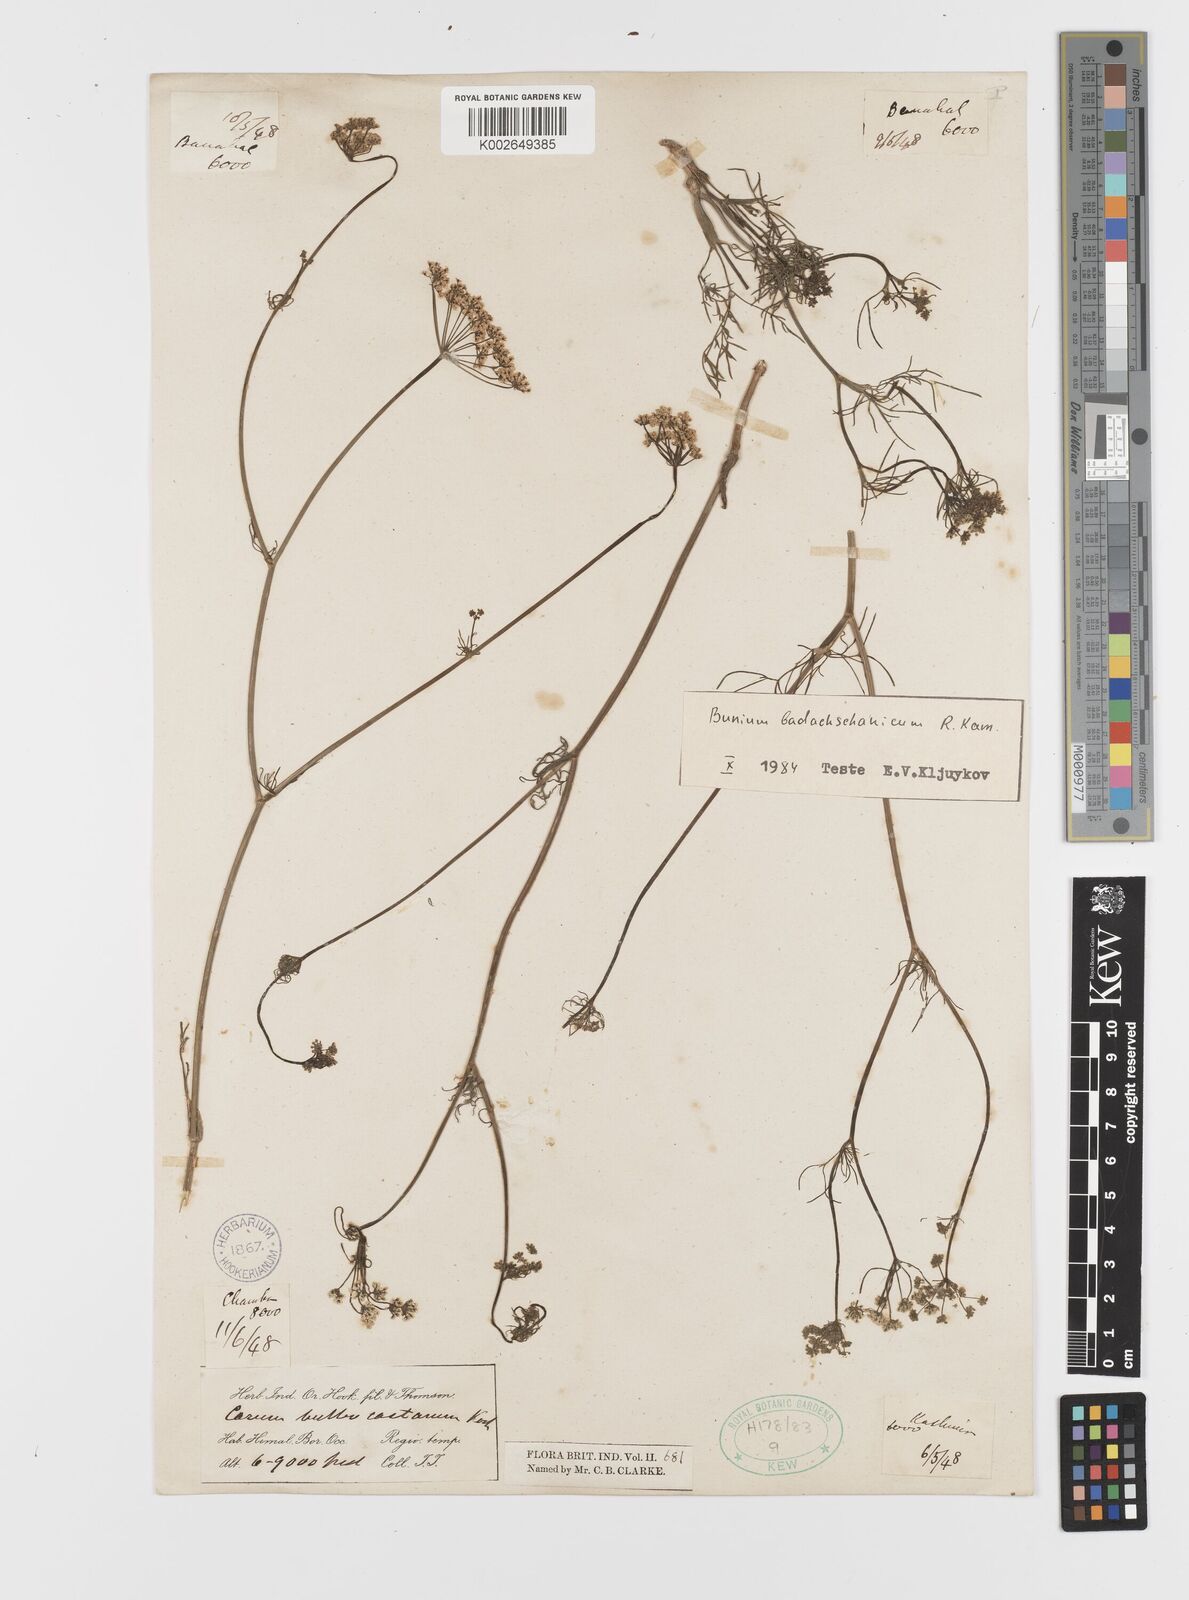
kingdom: Plantae
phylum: Tracheophyta
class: Magnoliopsida
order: Apiales
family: Apiaceae
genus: Elwendia
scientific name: Elwendia badachschanica
